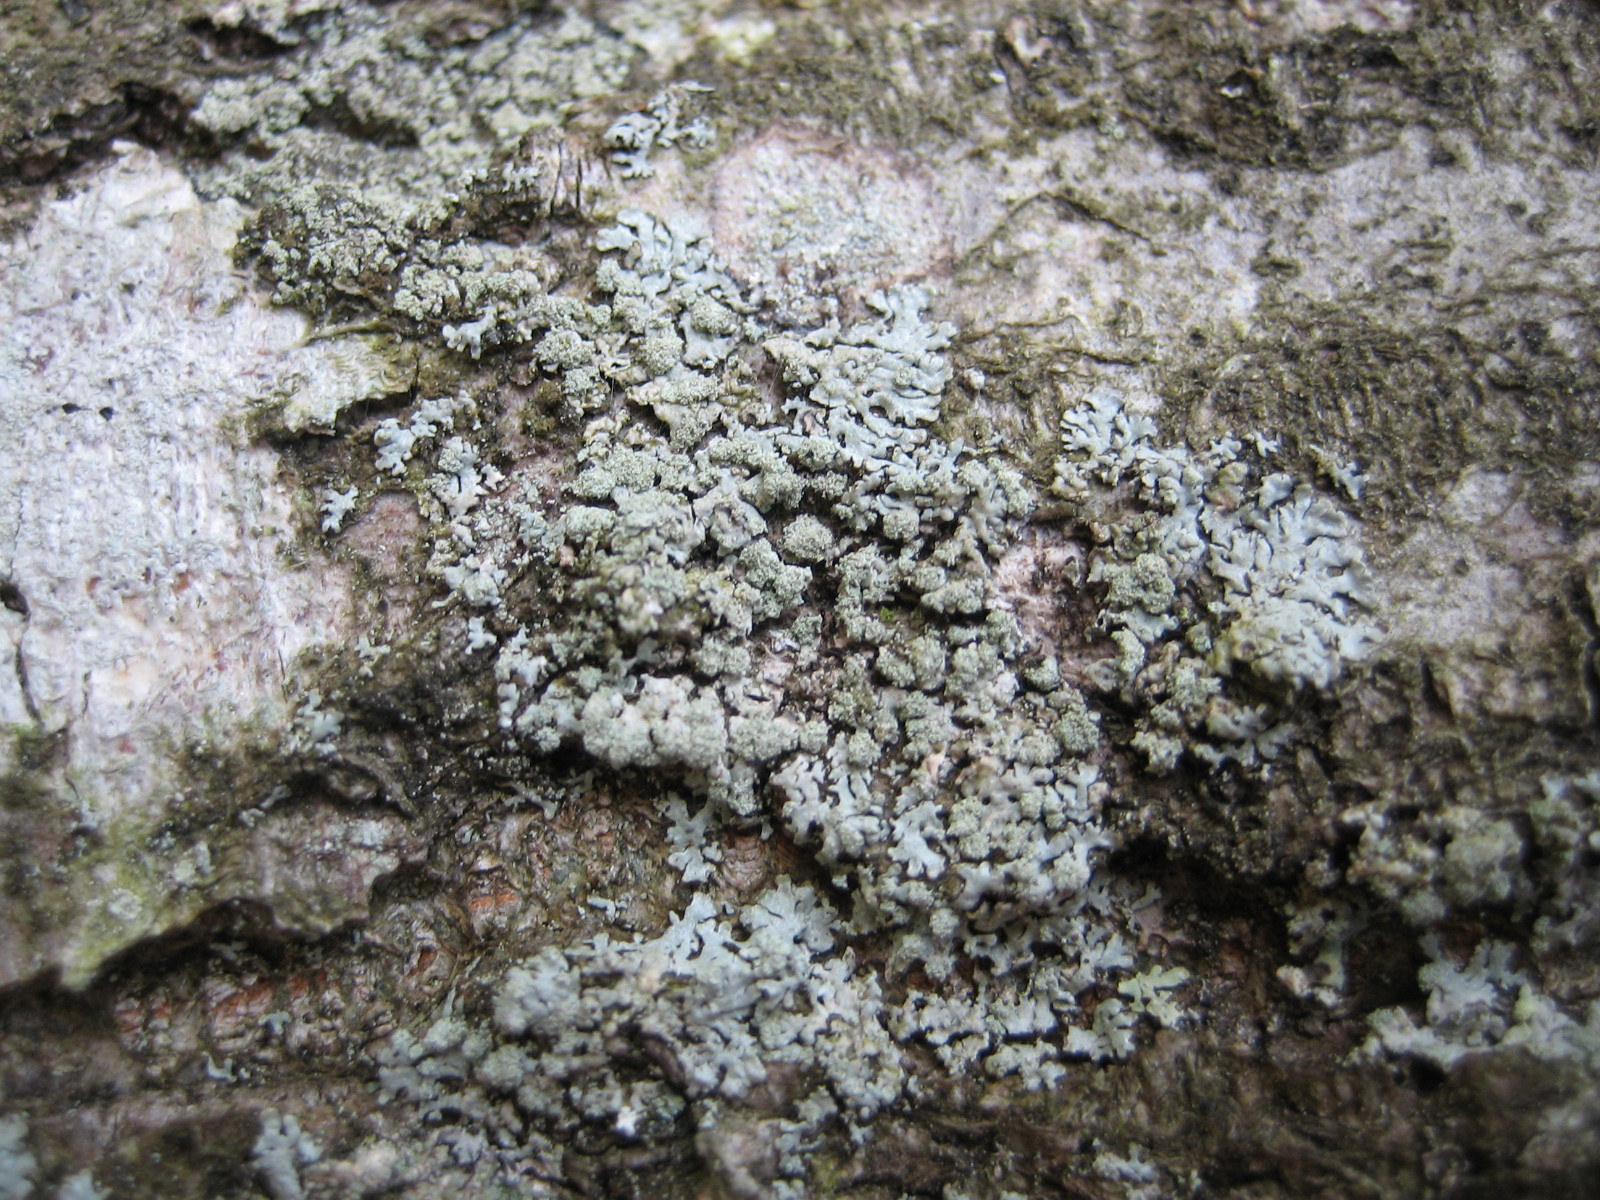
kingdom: Fungi
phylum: Ascomycota
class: Lecanoromycetes
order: Lecanorales
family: Parmeliaceae
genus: Parmeliopsis
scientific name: Parmeliopsis hyperopta
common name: grå stolpelav
